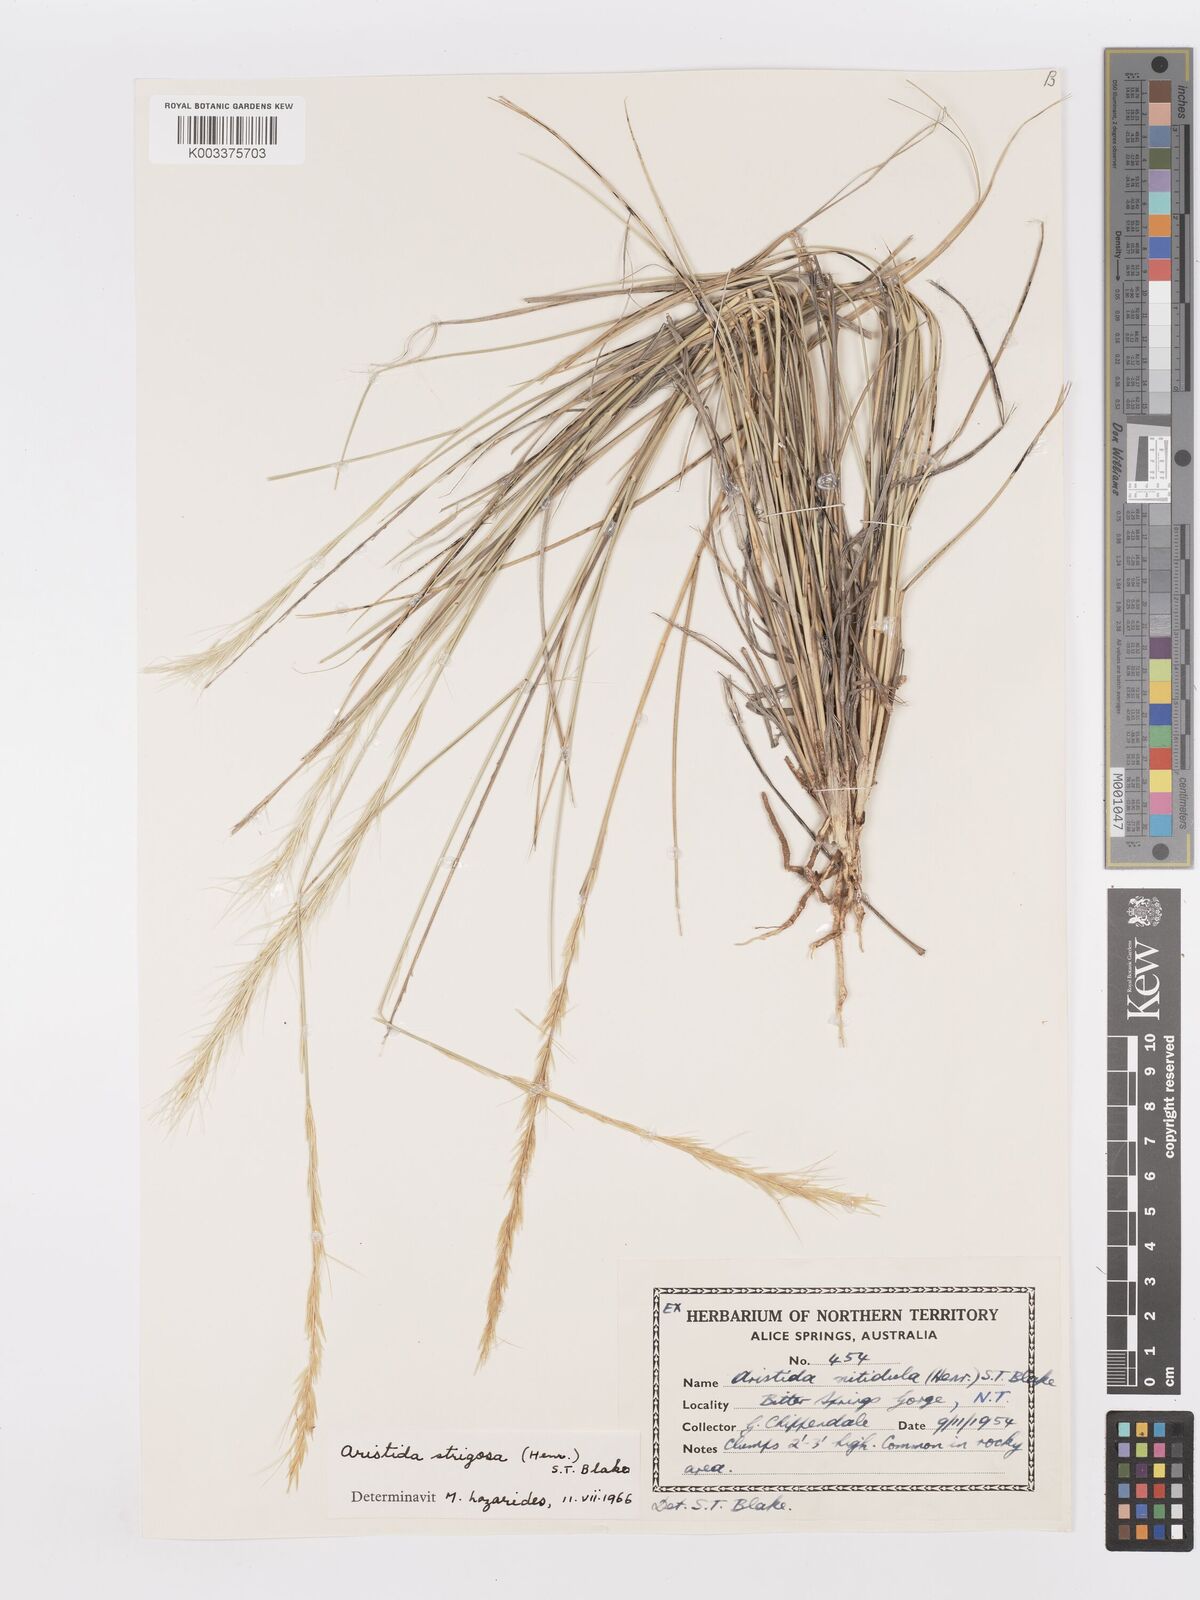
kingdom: Plantae
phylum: Tracheophyta
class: Liliopsida
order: Poales
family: Poaceae
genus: Aristida
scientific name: Aristida strigosa
